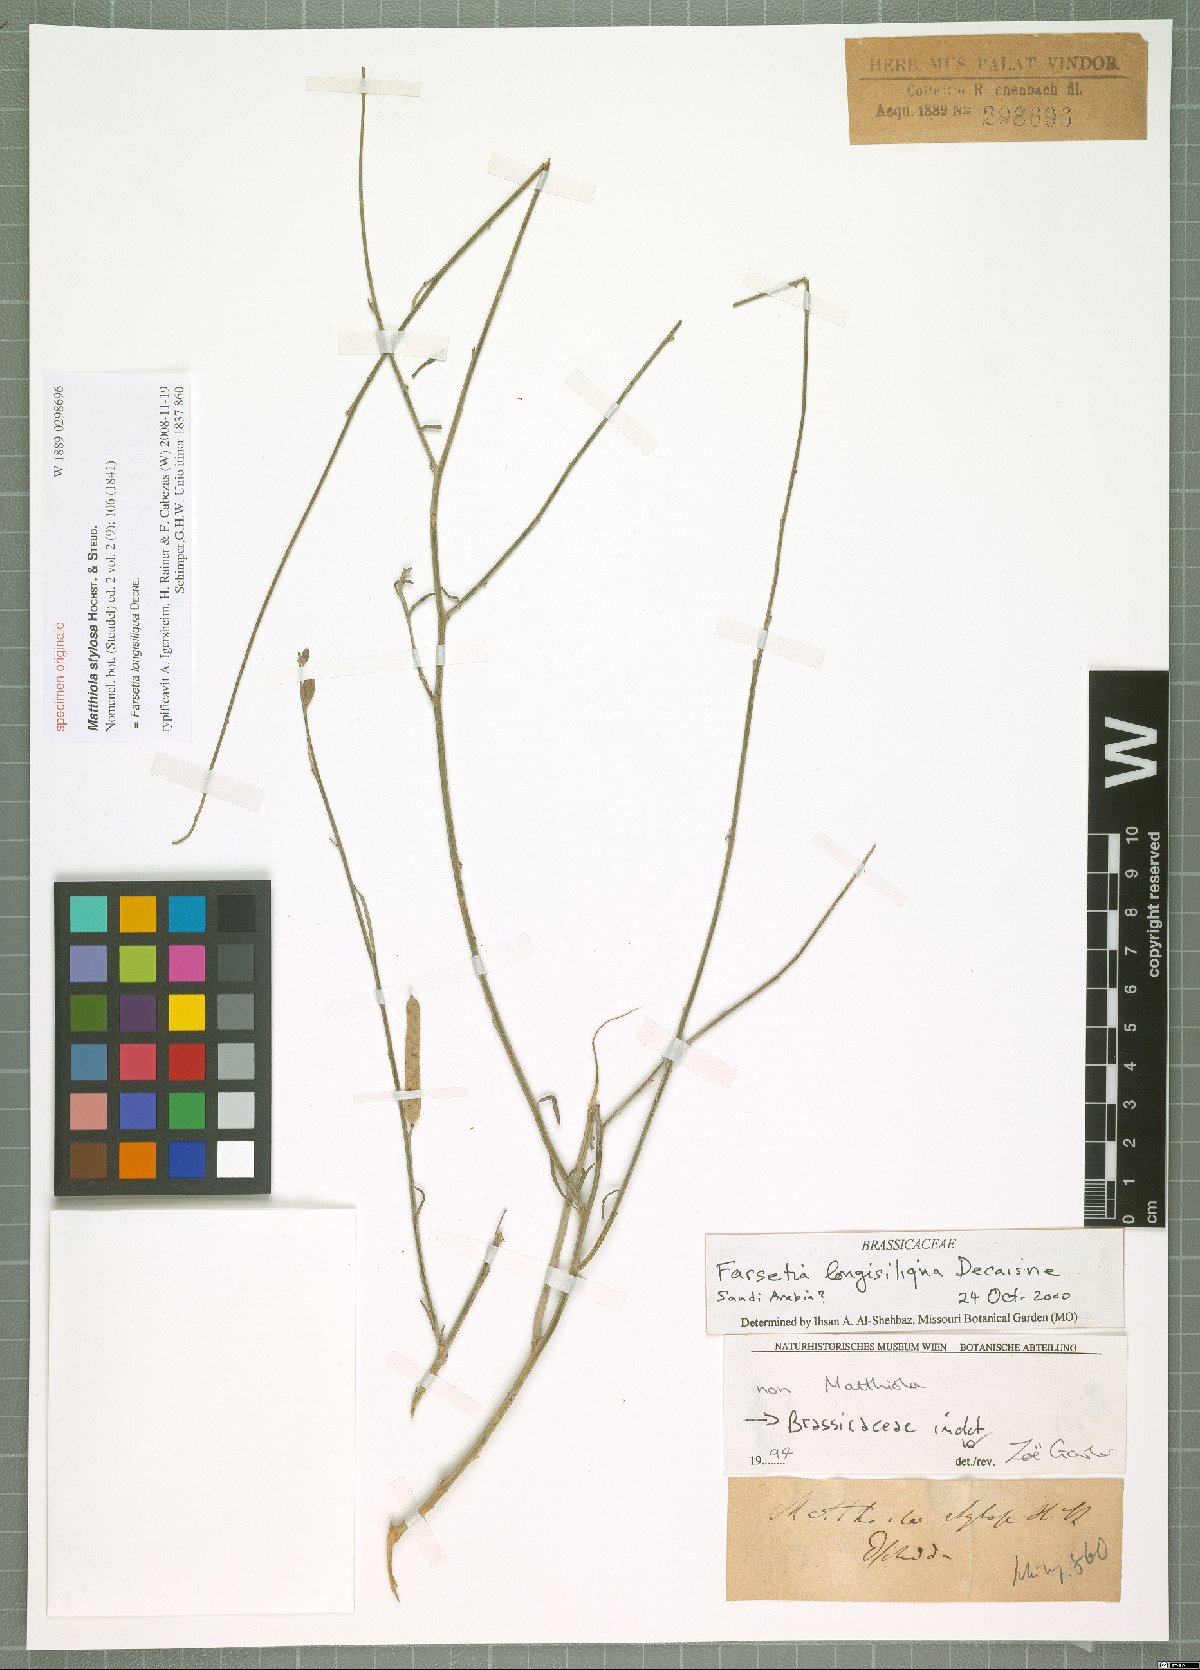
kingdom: Plantae
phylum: Tracheophyta
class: Magnoliopsida
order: Brassicales
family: Brassicaceae
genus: Farsetia
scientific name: Farsetia longisiliqua
